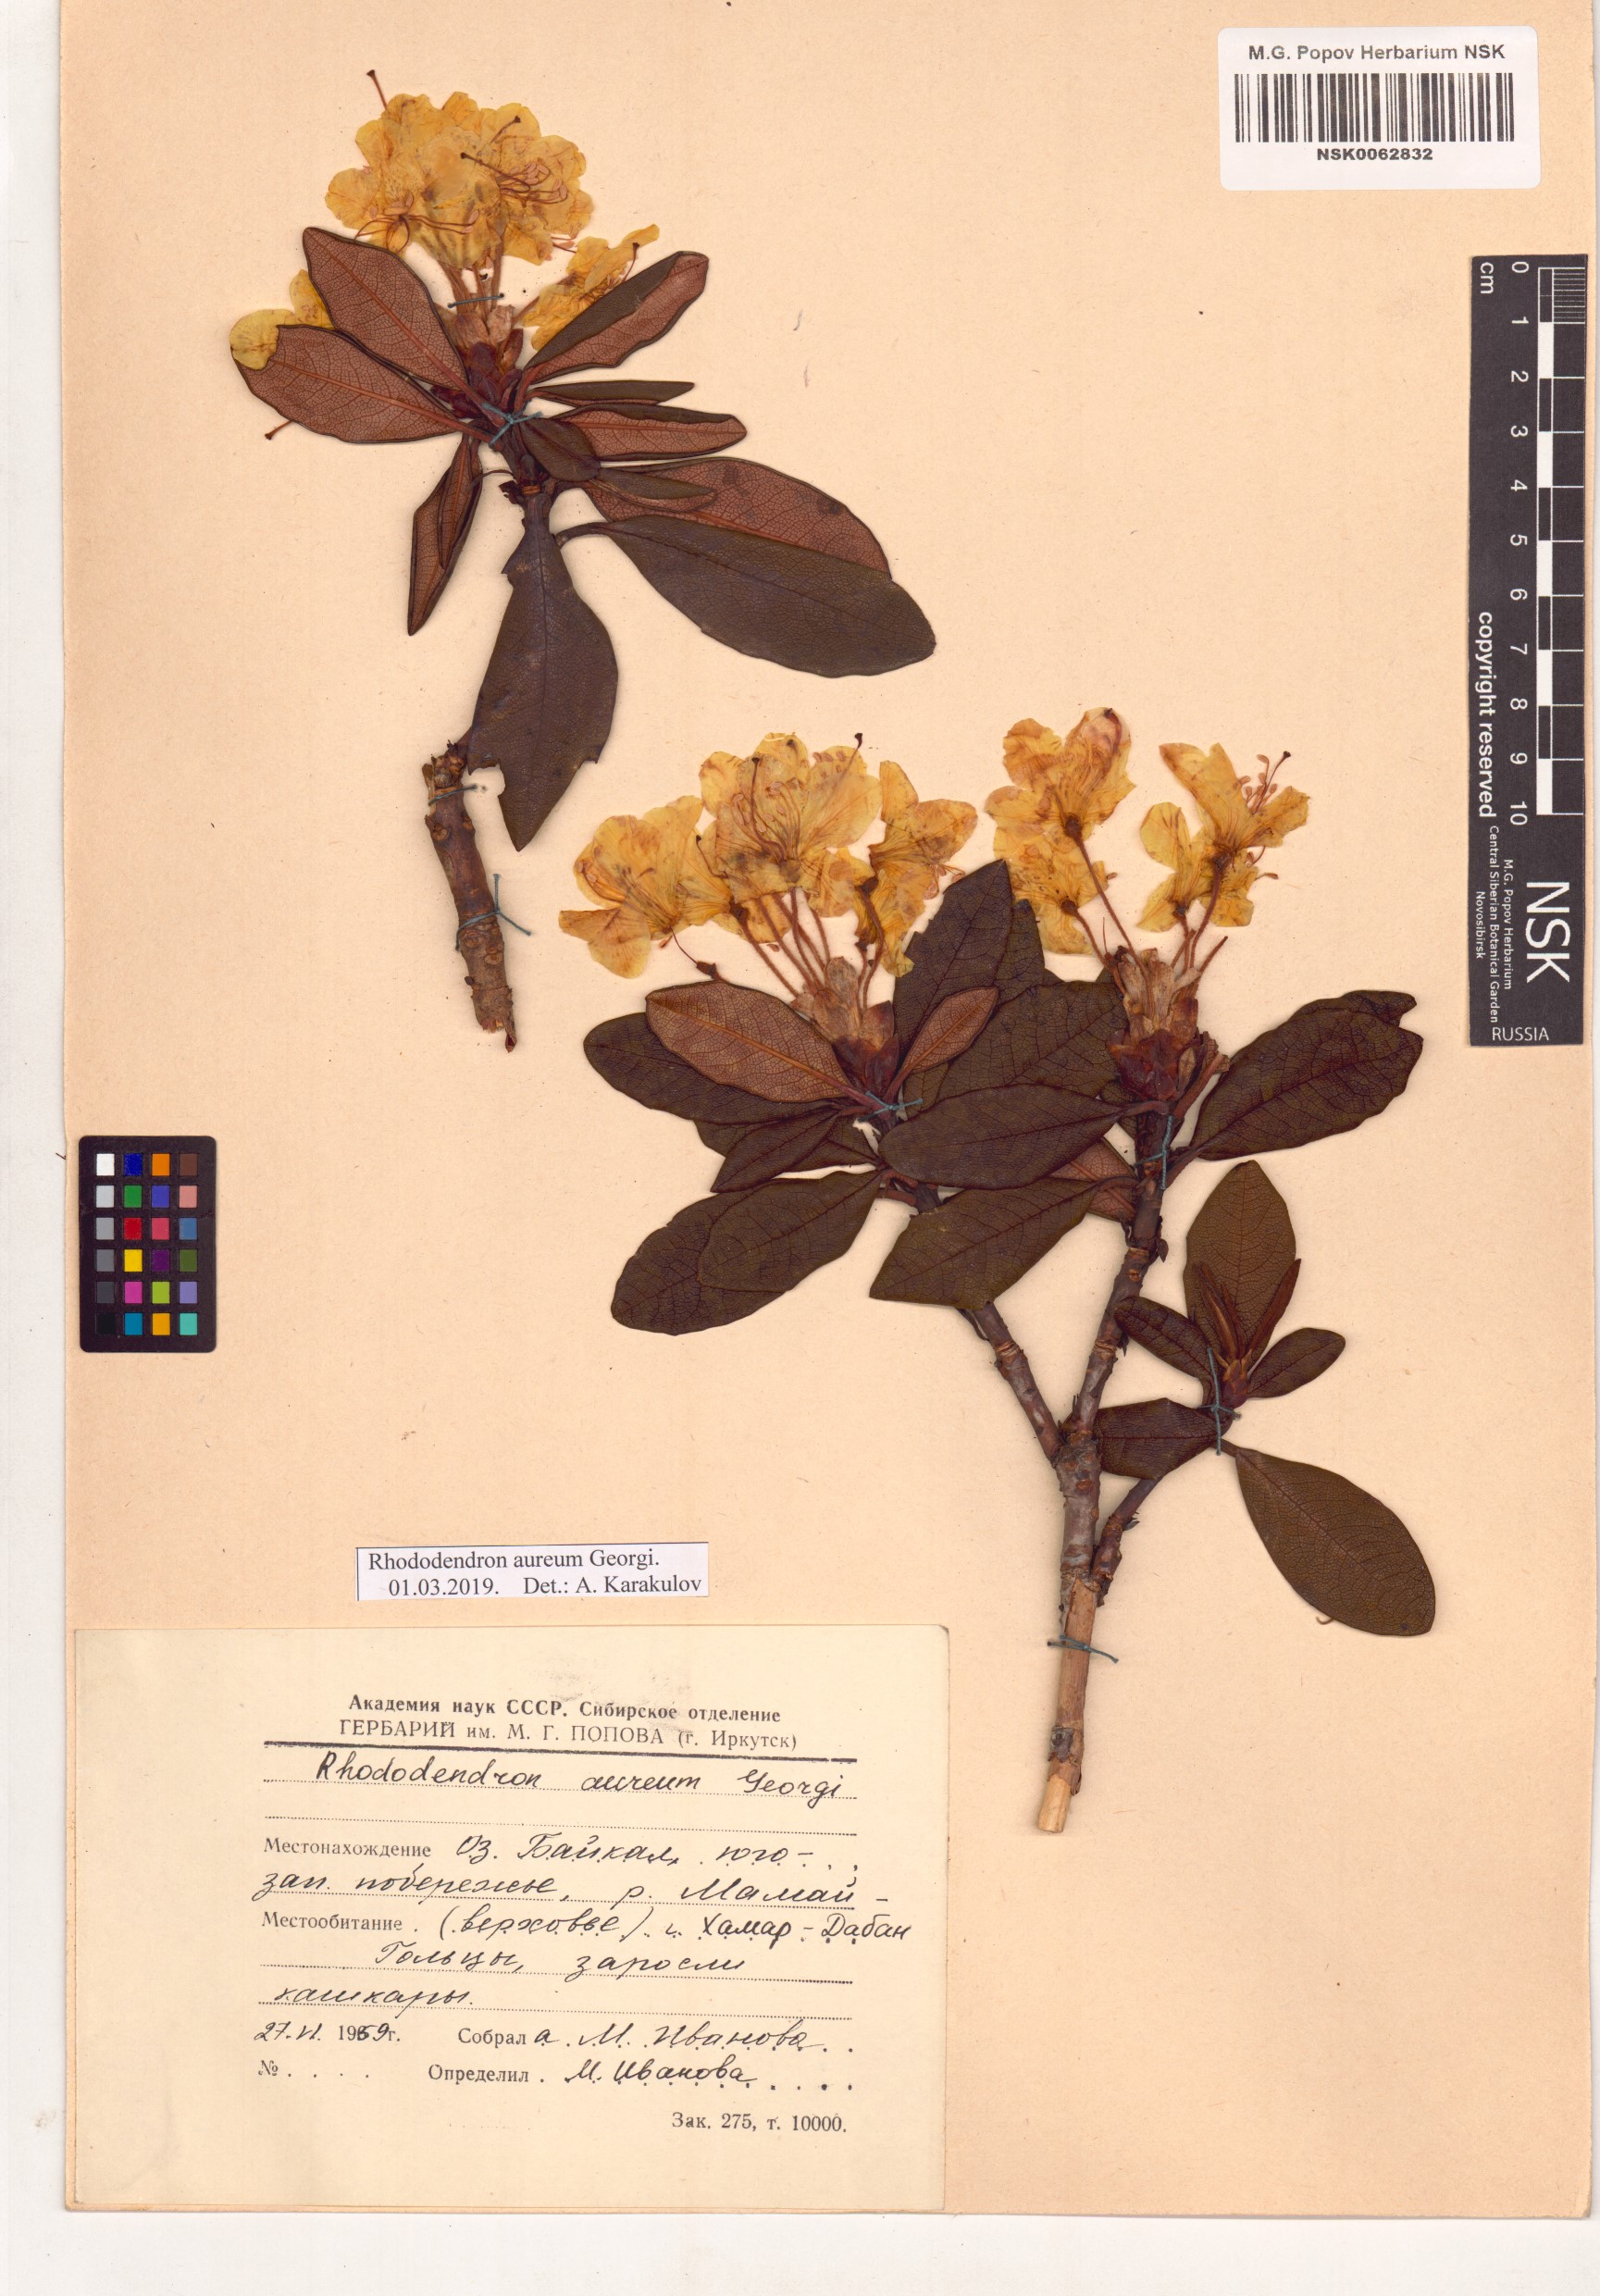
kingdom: Plantae
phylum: Tracheophyta
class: Magnoliopsida
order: Ericales
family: Ericaceae
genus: Rhododendron
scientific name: Rhododendron aureum
